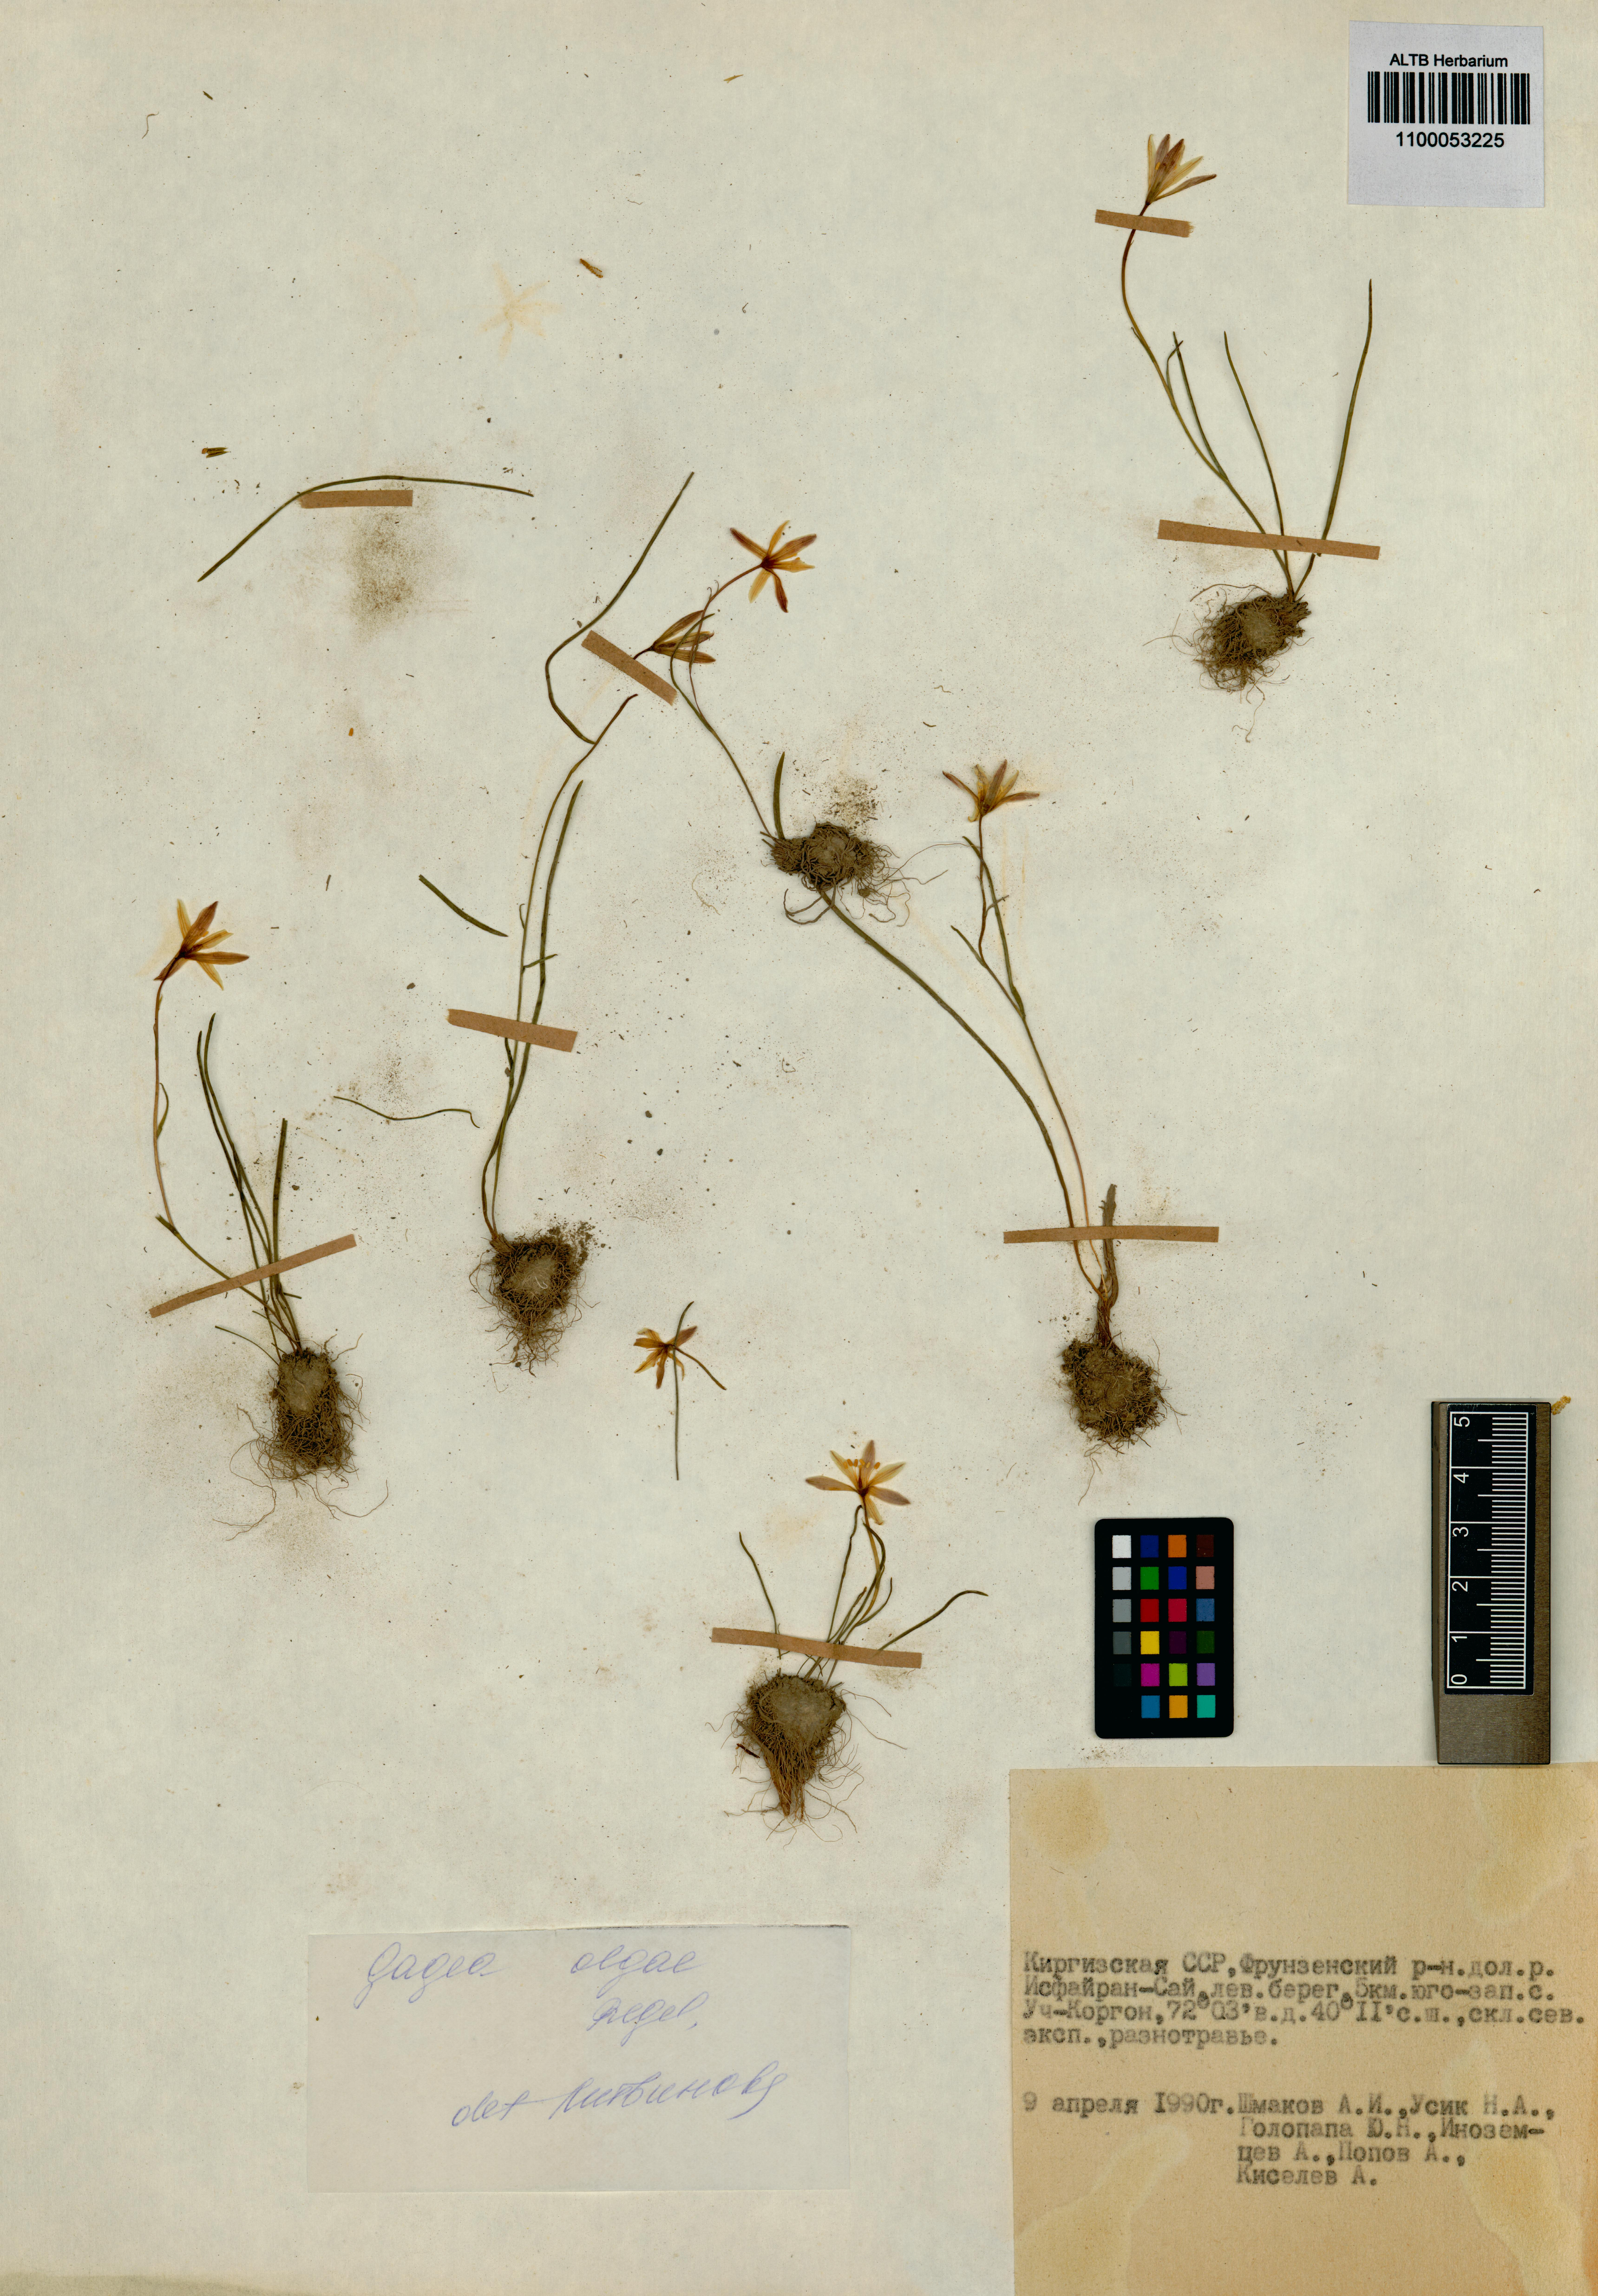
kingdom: Plantae
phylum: Tracheophyta
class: Liliopsida
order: Liliales
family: Liliaceae
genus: Gagea
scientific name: Gagea olgae
